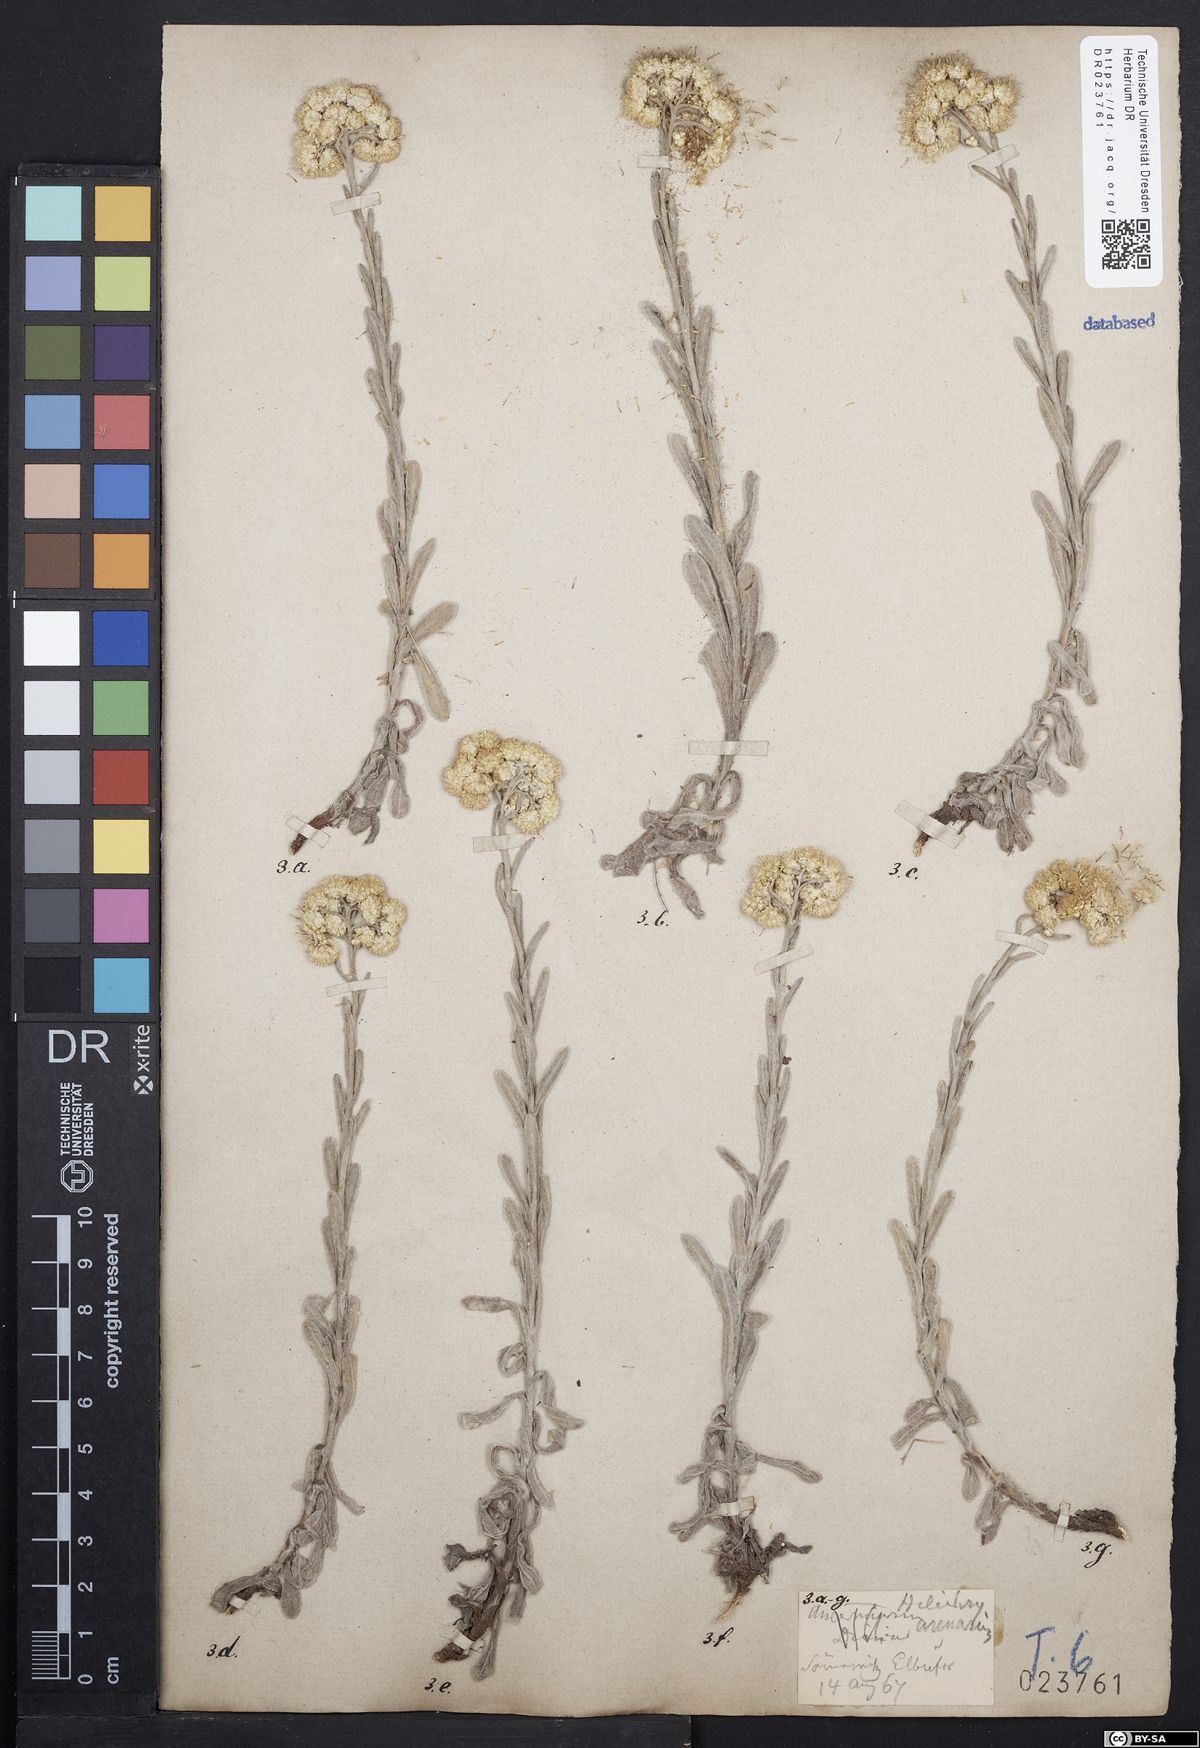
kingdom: Plantae
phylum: Tracheophyta
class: Magnoliopsida
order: Asterales
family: Asteraceae
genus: Helichrysum
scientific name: Helichrysum arenarium
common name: Strawflower
